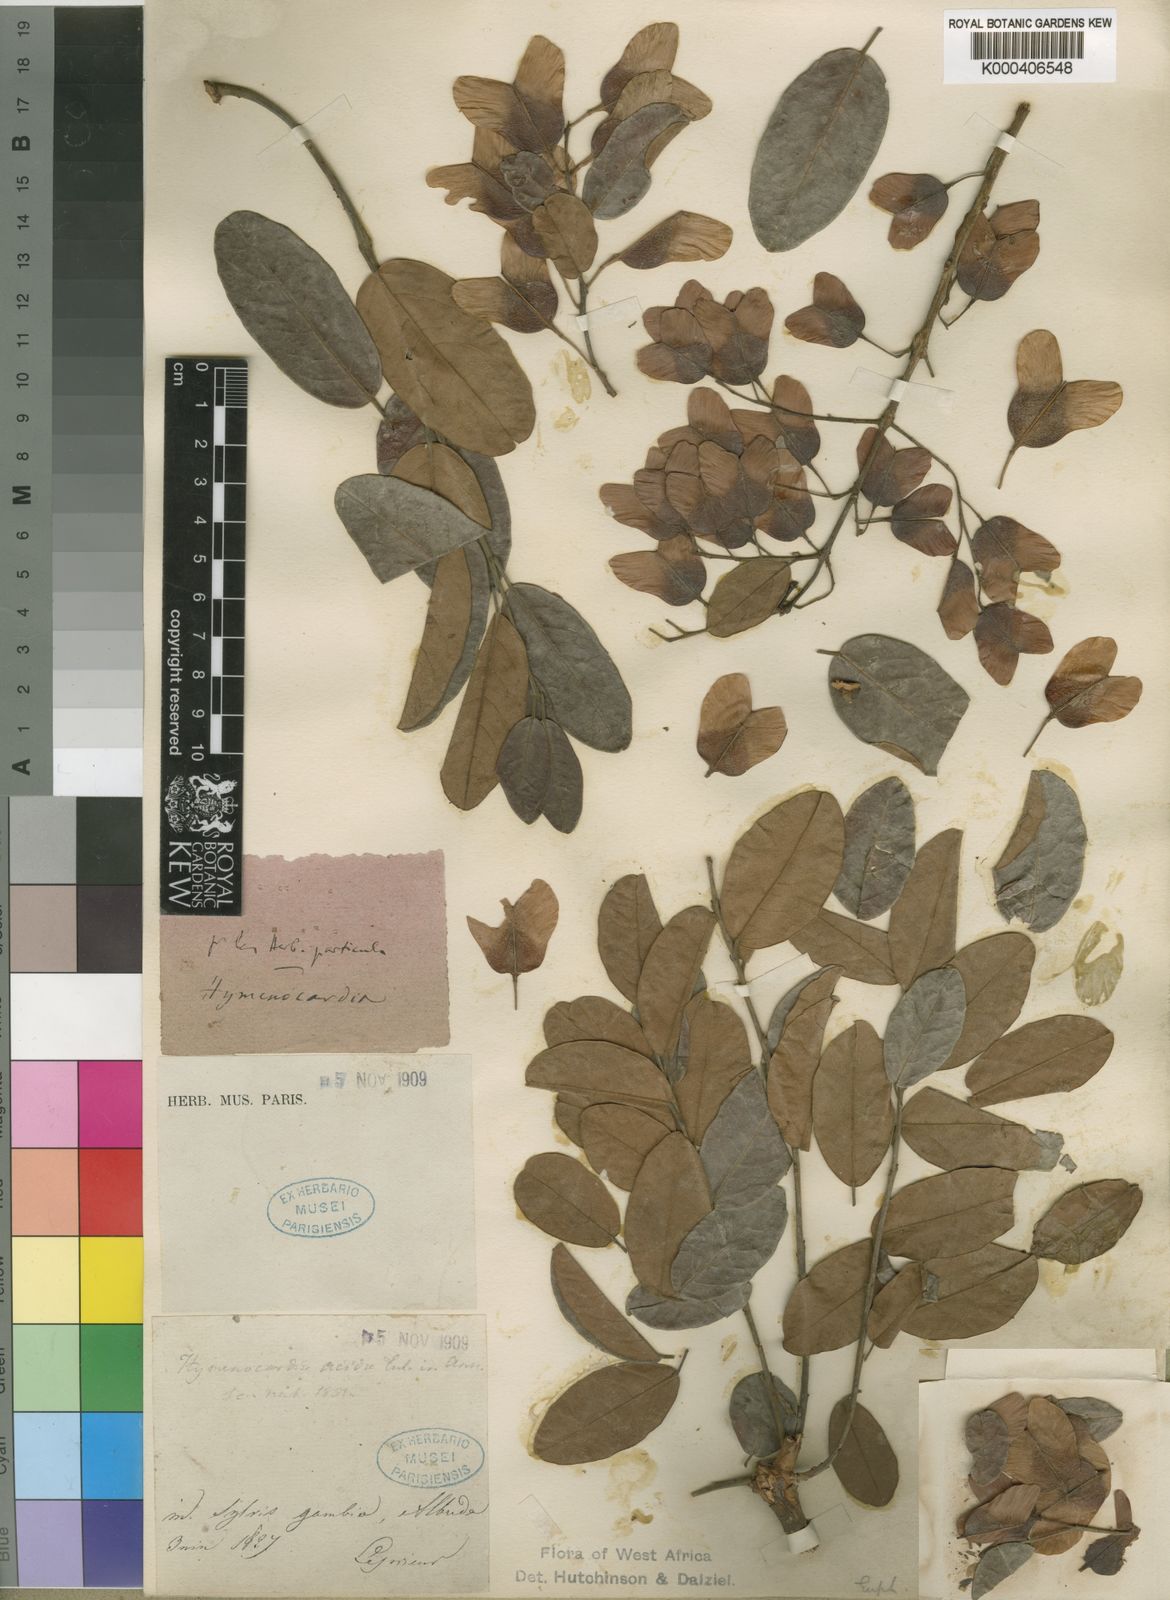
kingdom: Plantae
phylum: Tracheophyta
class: Magnoliopsida
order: Malpighiales
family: Phyllanthaceae
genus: Hymenocardia
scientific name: Hymenocardia acida
